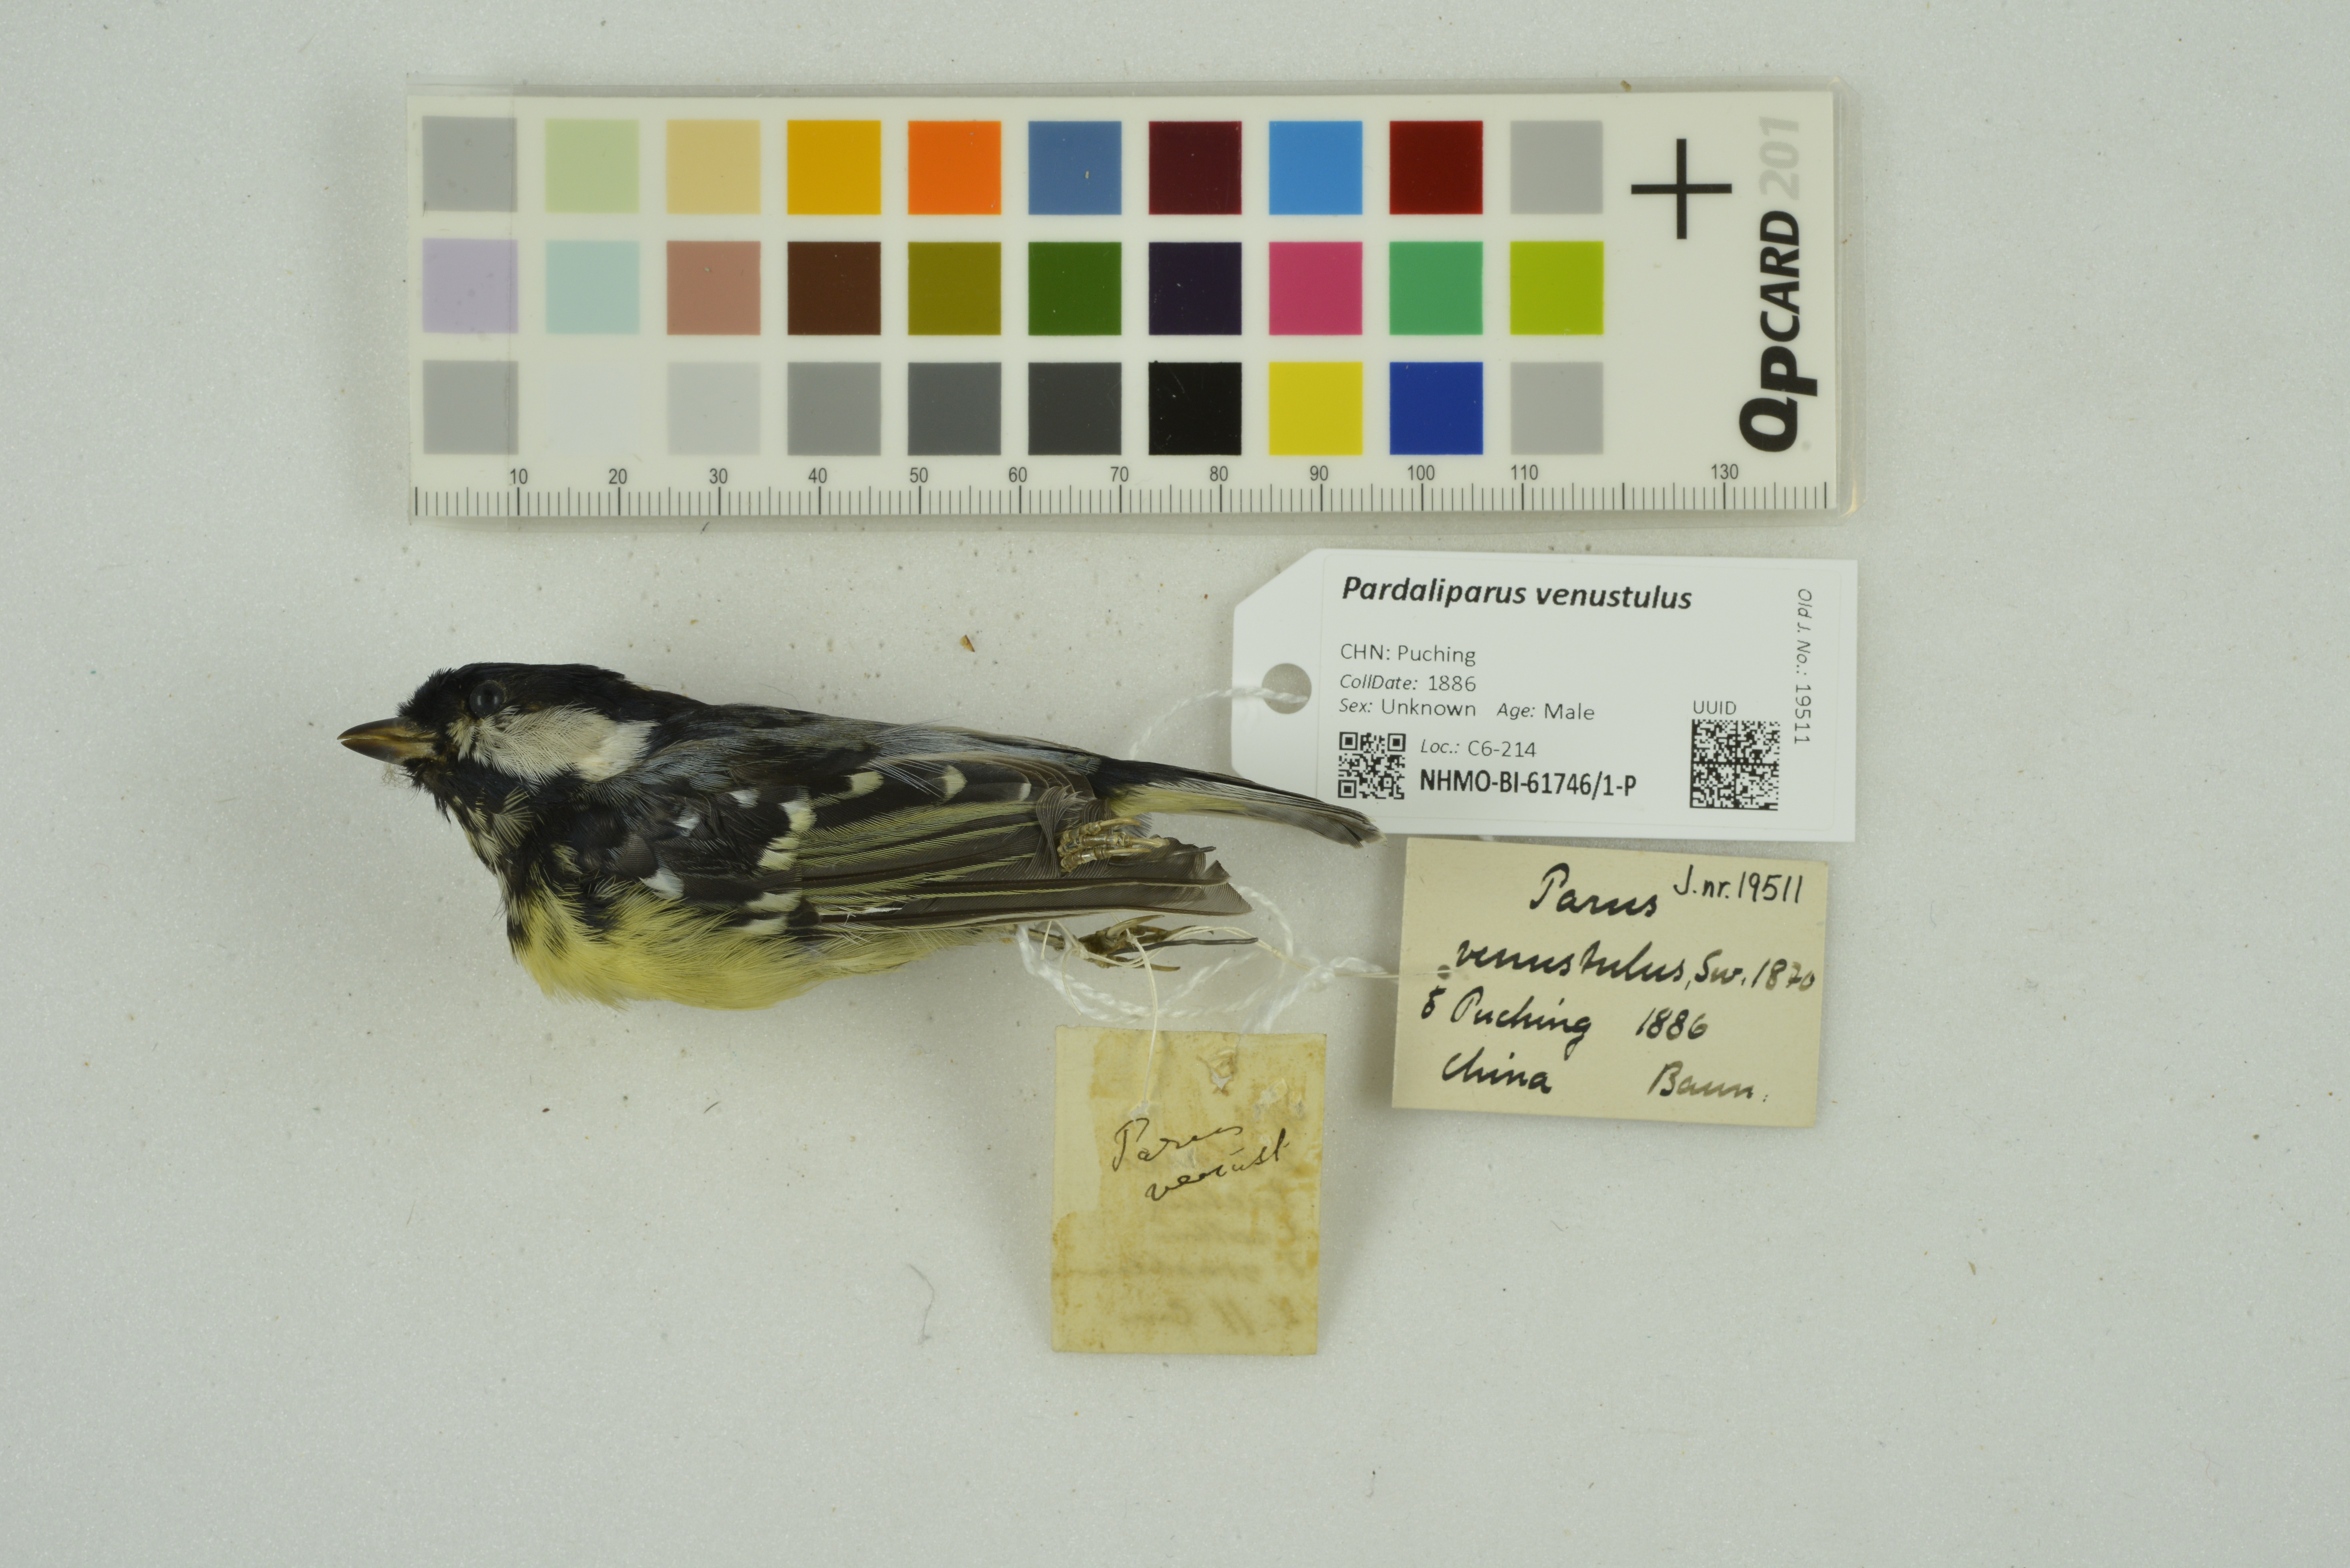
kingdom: Animalia
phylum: Chordata
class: Aves
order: Passeriformes
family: Paridae
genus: Periparus
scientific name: Periparus venustulus
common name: Yellow-bellied tit
